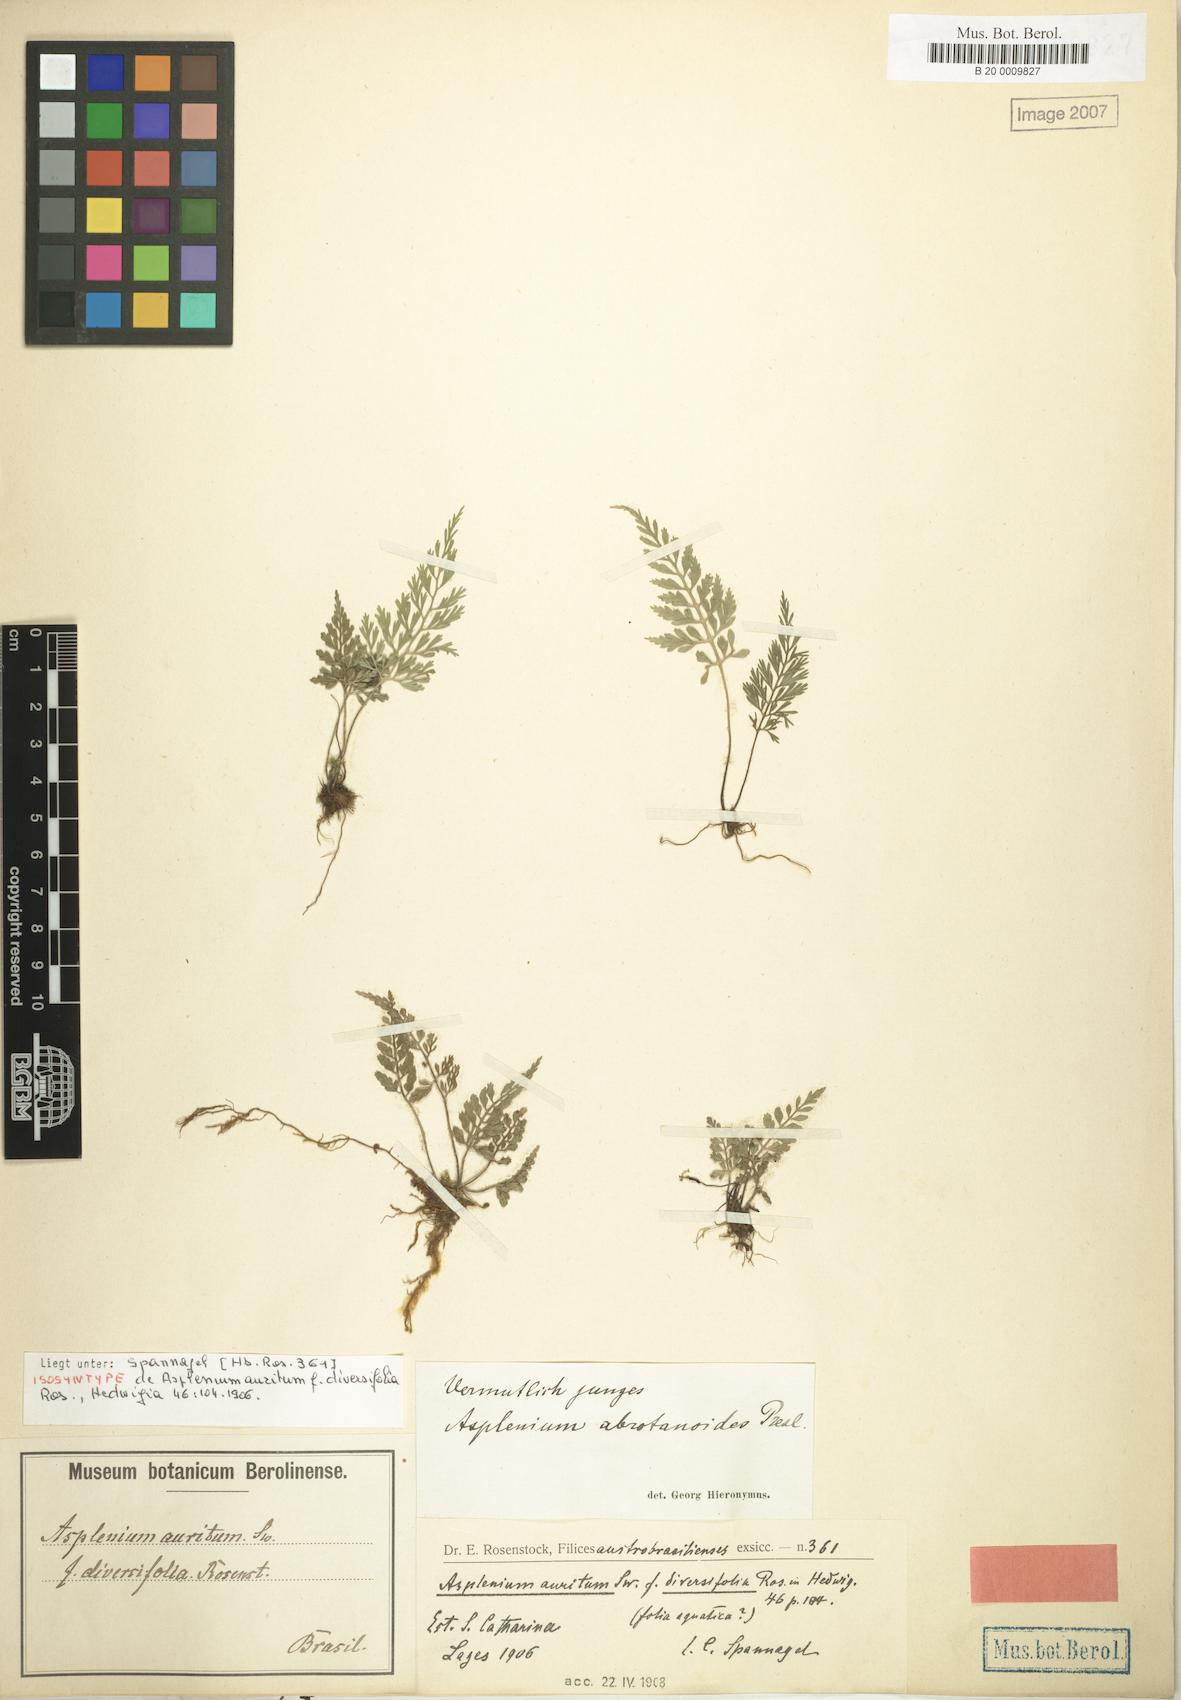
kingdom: Plantae
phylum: Tracheophyta
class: Polypodiopsida
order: Polypodiales
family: Aspleniaceae
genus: Asplenium
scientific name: Asplenium gastonis
